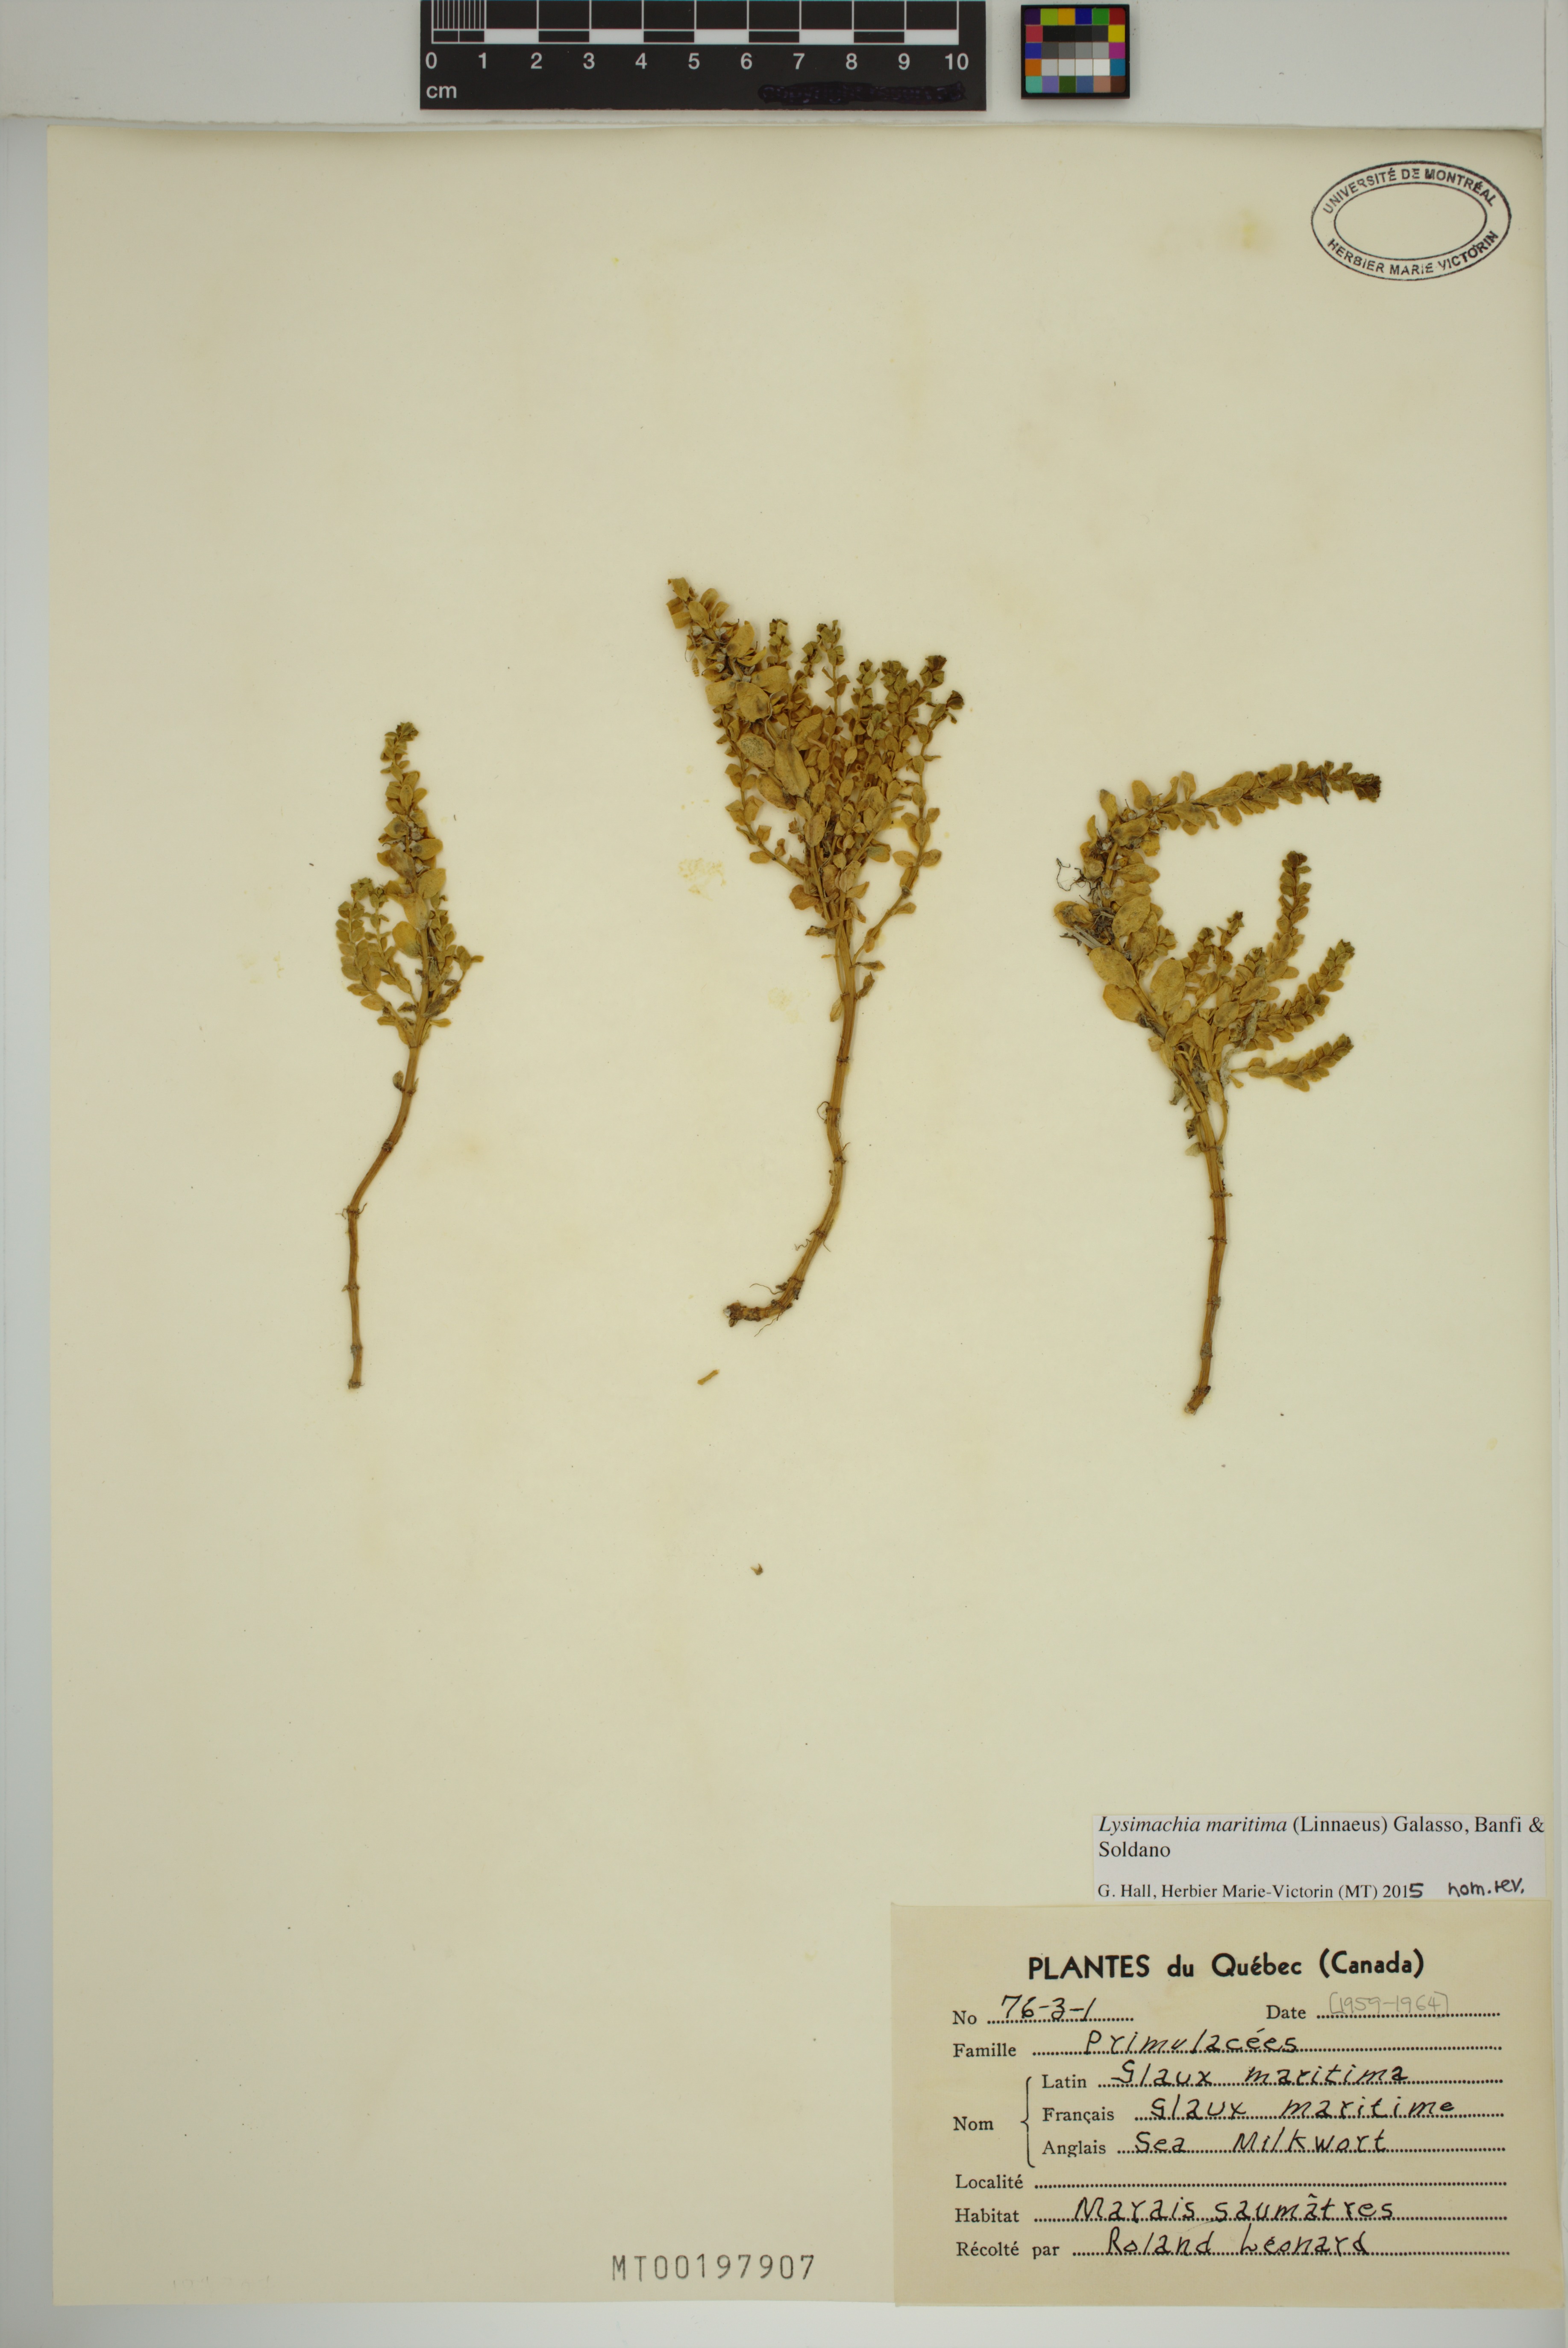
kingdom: Plantae
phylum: Tracheophyta
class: Magnoliopsida
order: Ericales
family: Primulaceae
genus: Lysimachia
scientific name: Lysimachia maritima
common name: Sea milkwort
